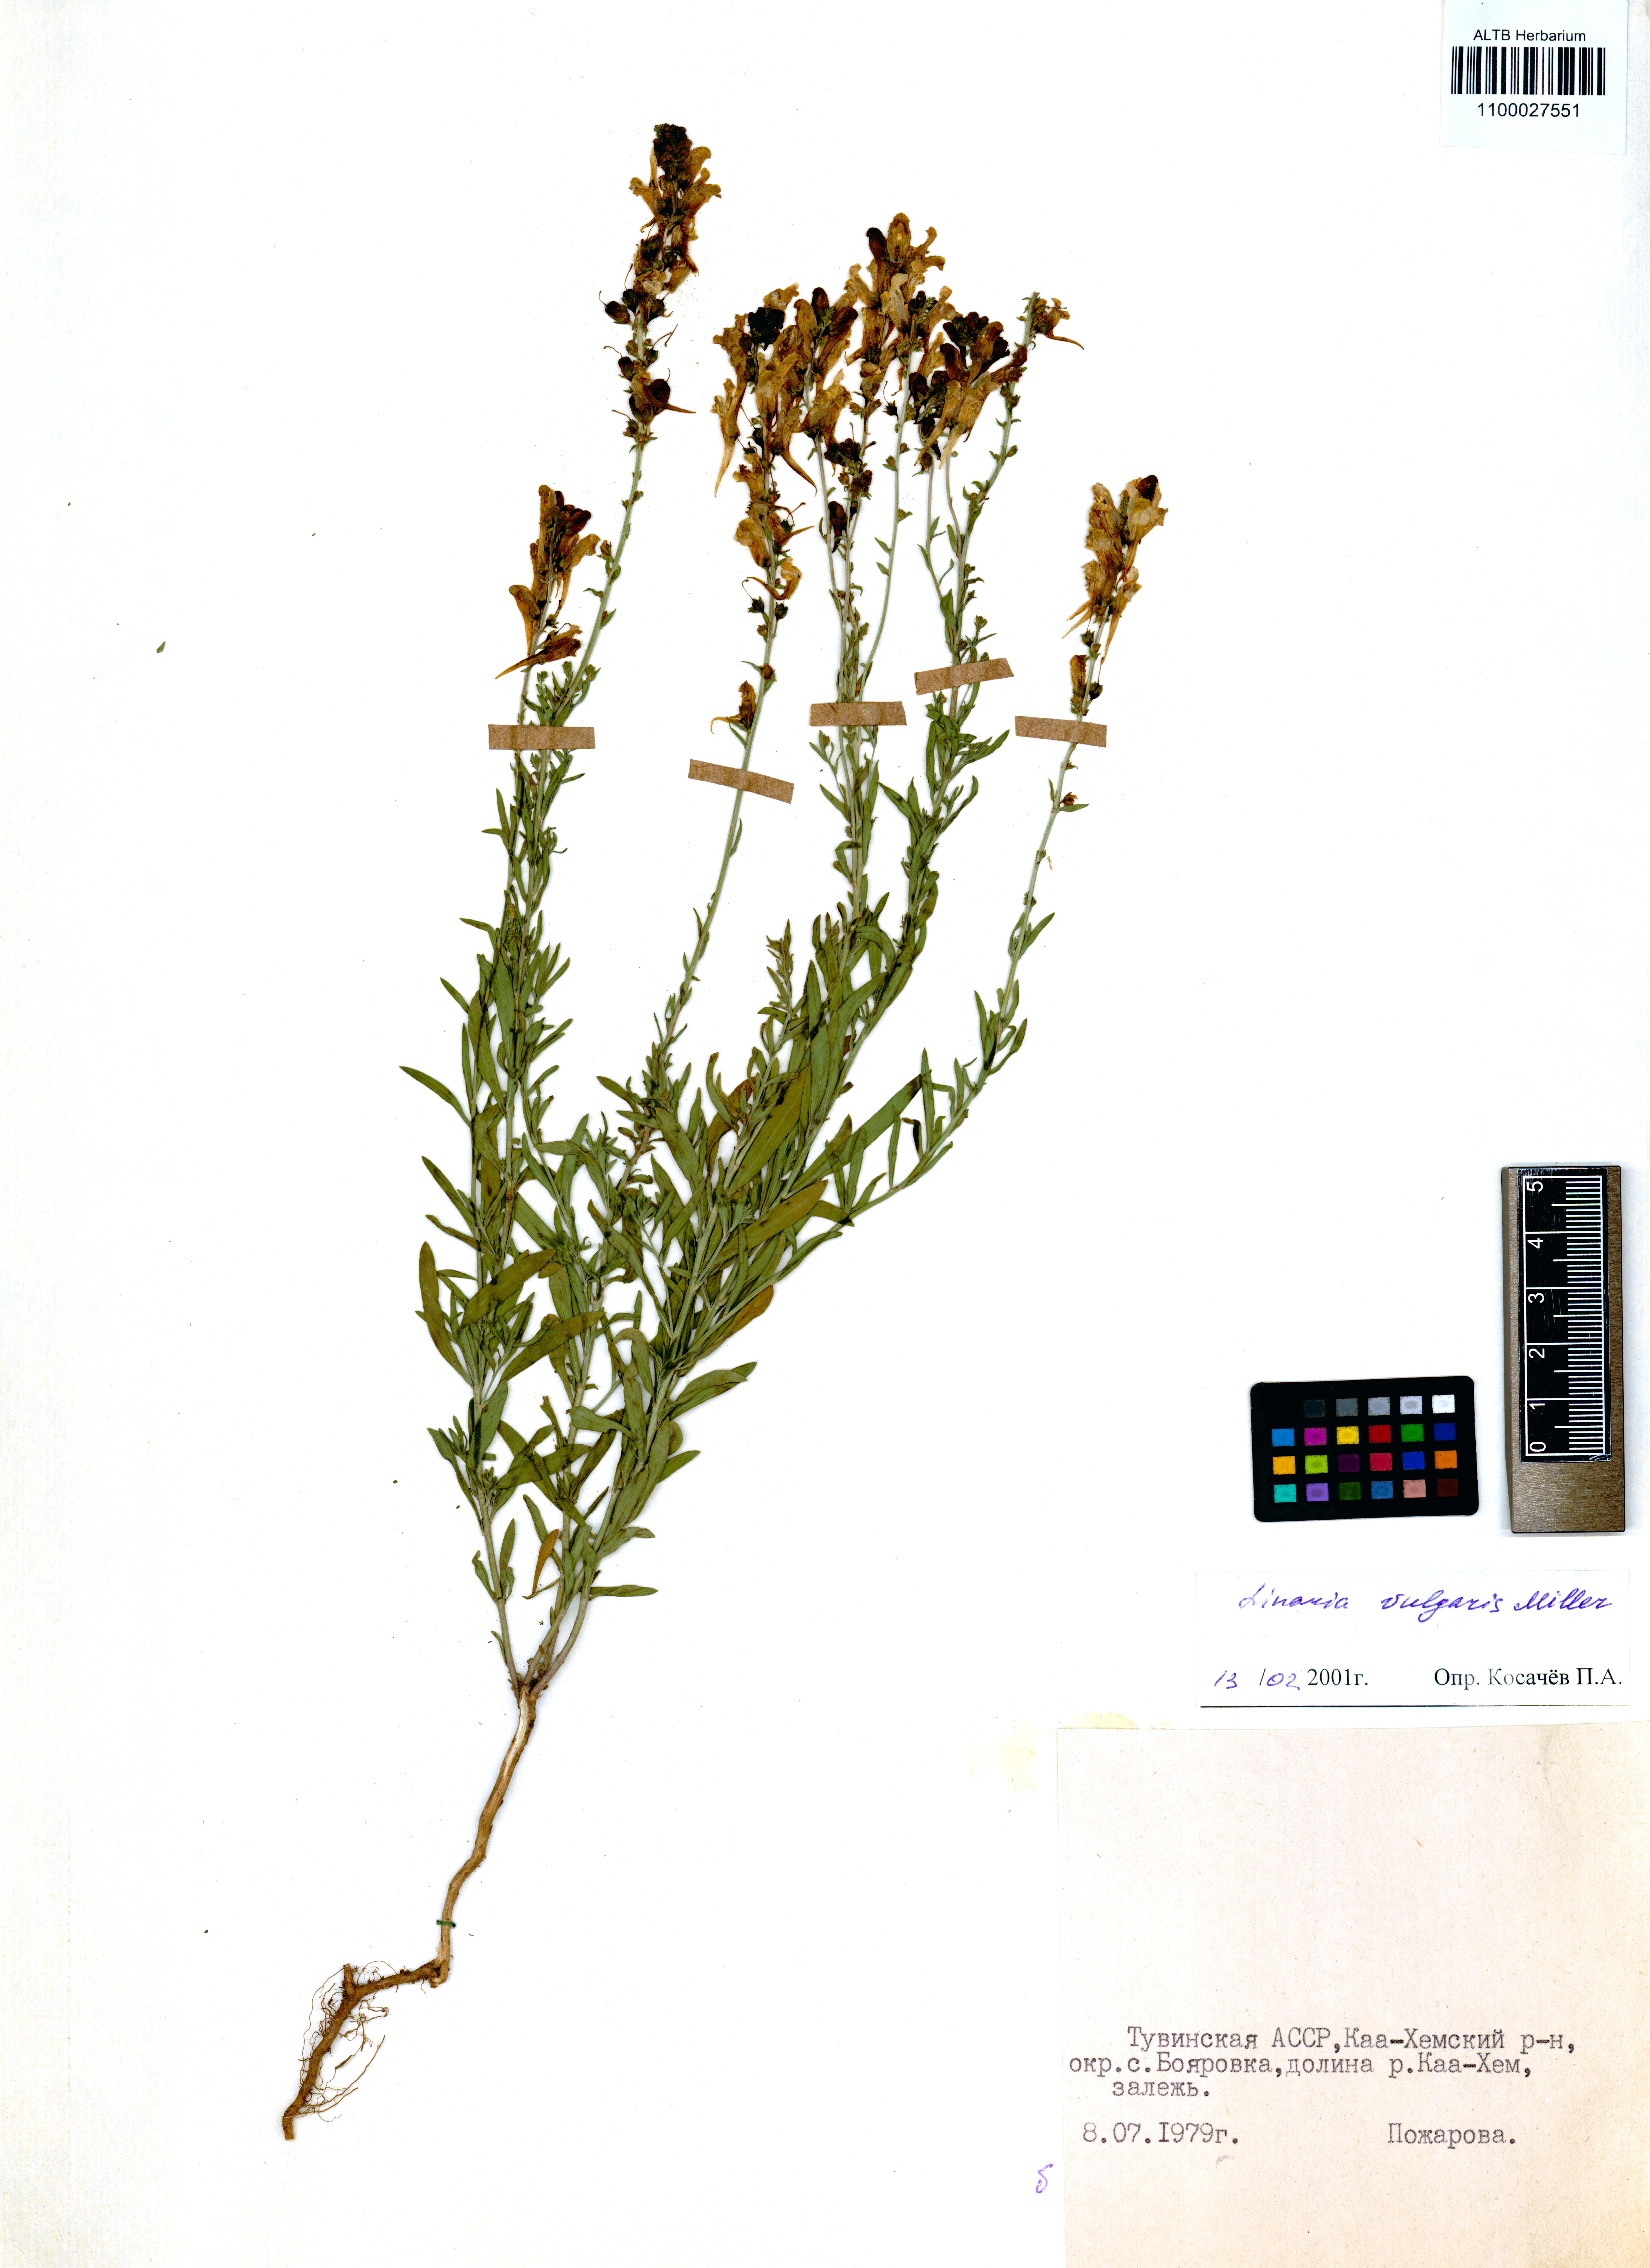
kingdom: Plantae
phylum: Tracheophyta
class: Liliopsida
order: Poales
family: Poaceae
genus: Stipa
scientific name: Stipa pulcherrima
